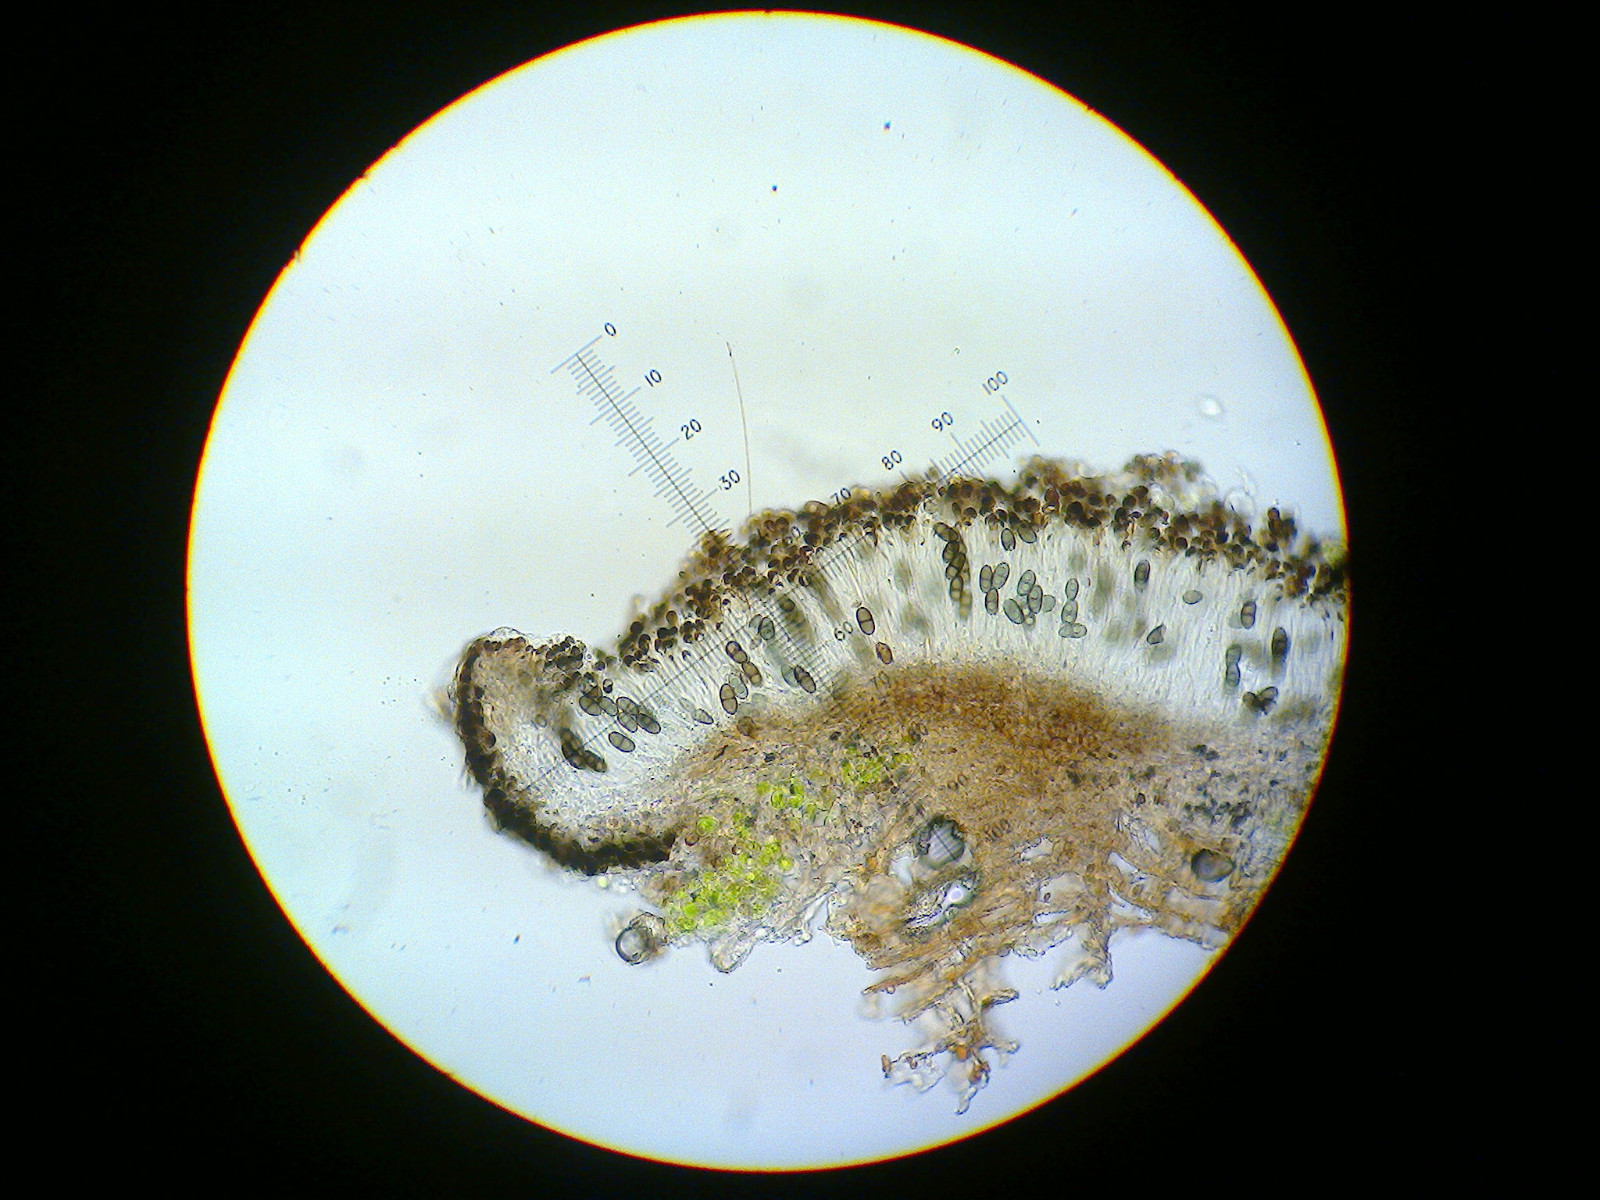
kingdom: Fungi
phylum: Ascomycota
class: Lecanoromycetes
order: Caliciales
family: Caliciaceae
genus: Amandinea
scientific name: Amandinea punctata
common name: liden sortskivelav
